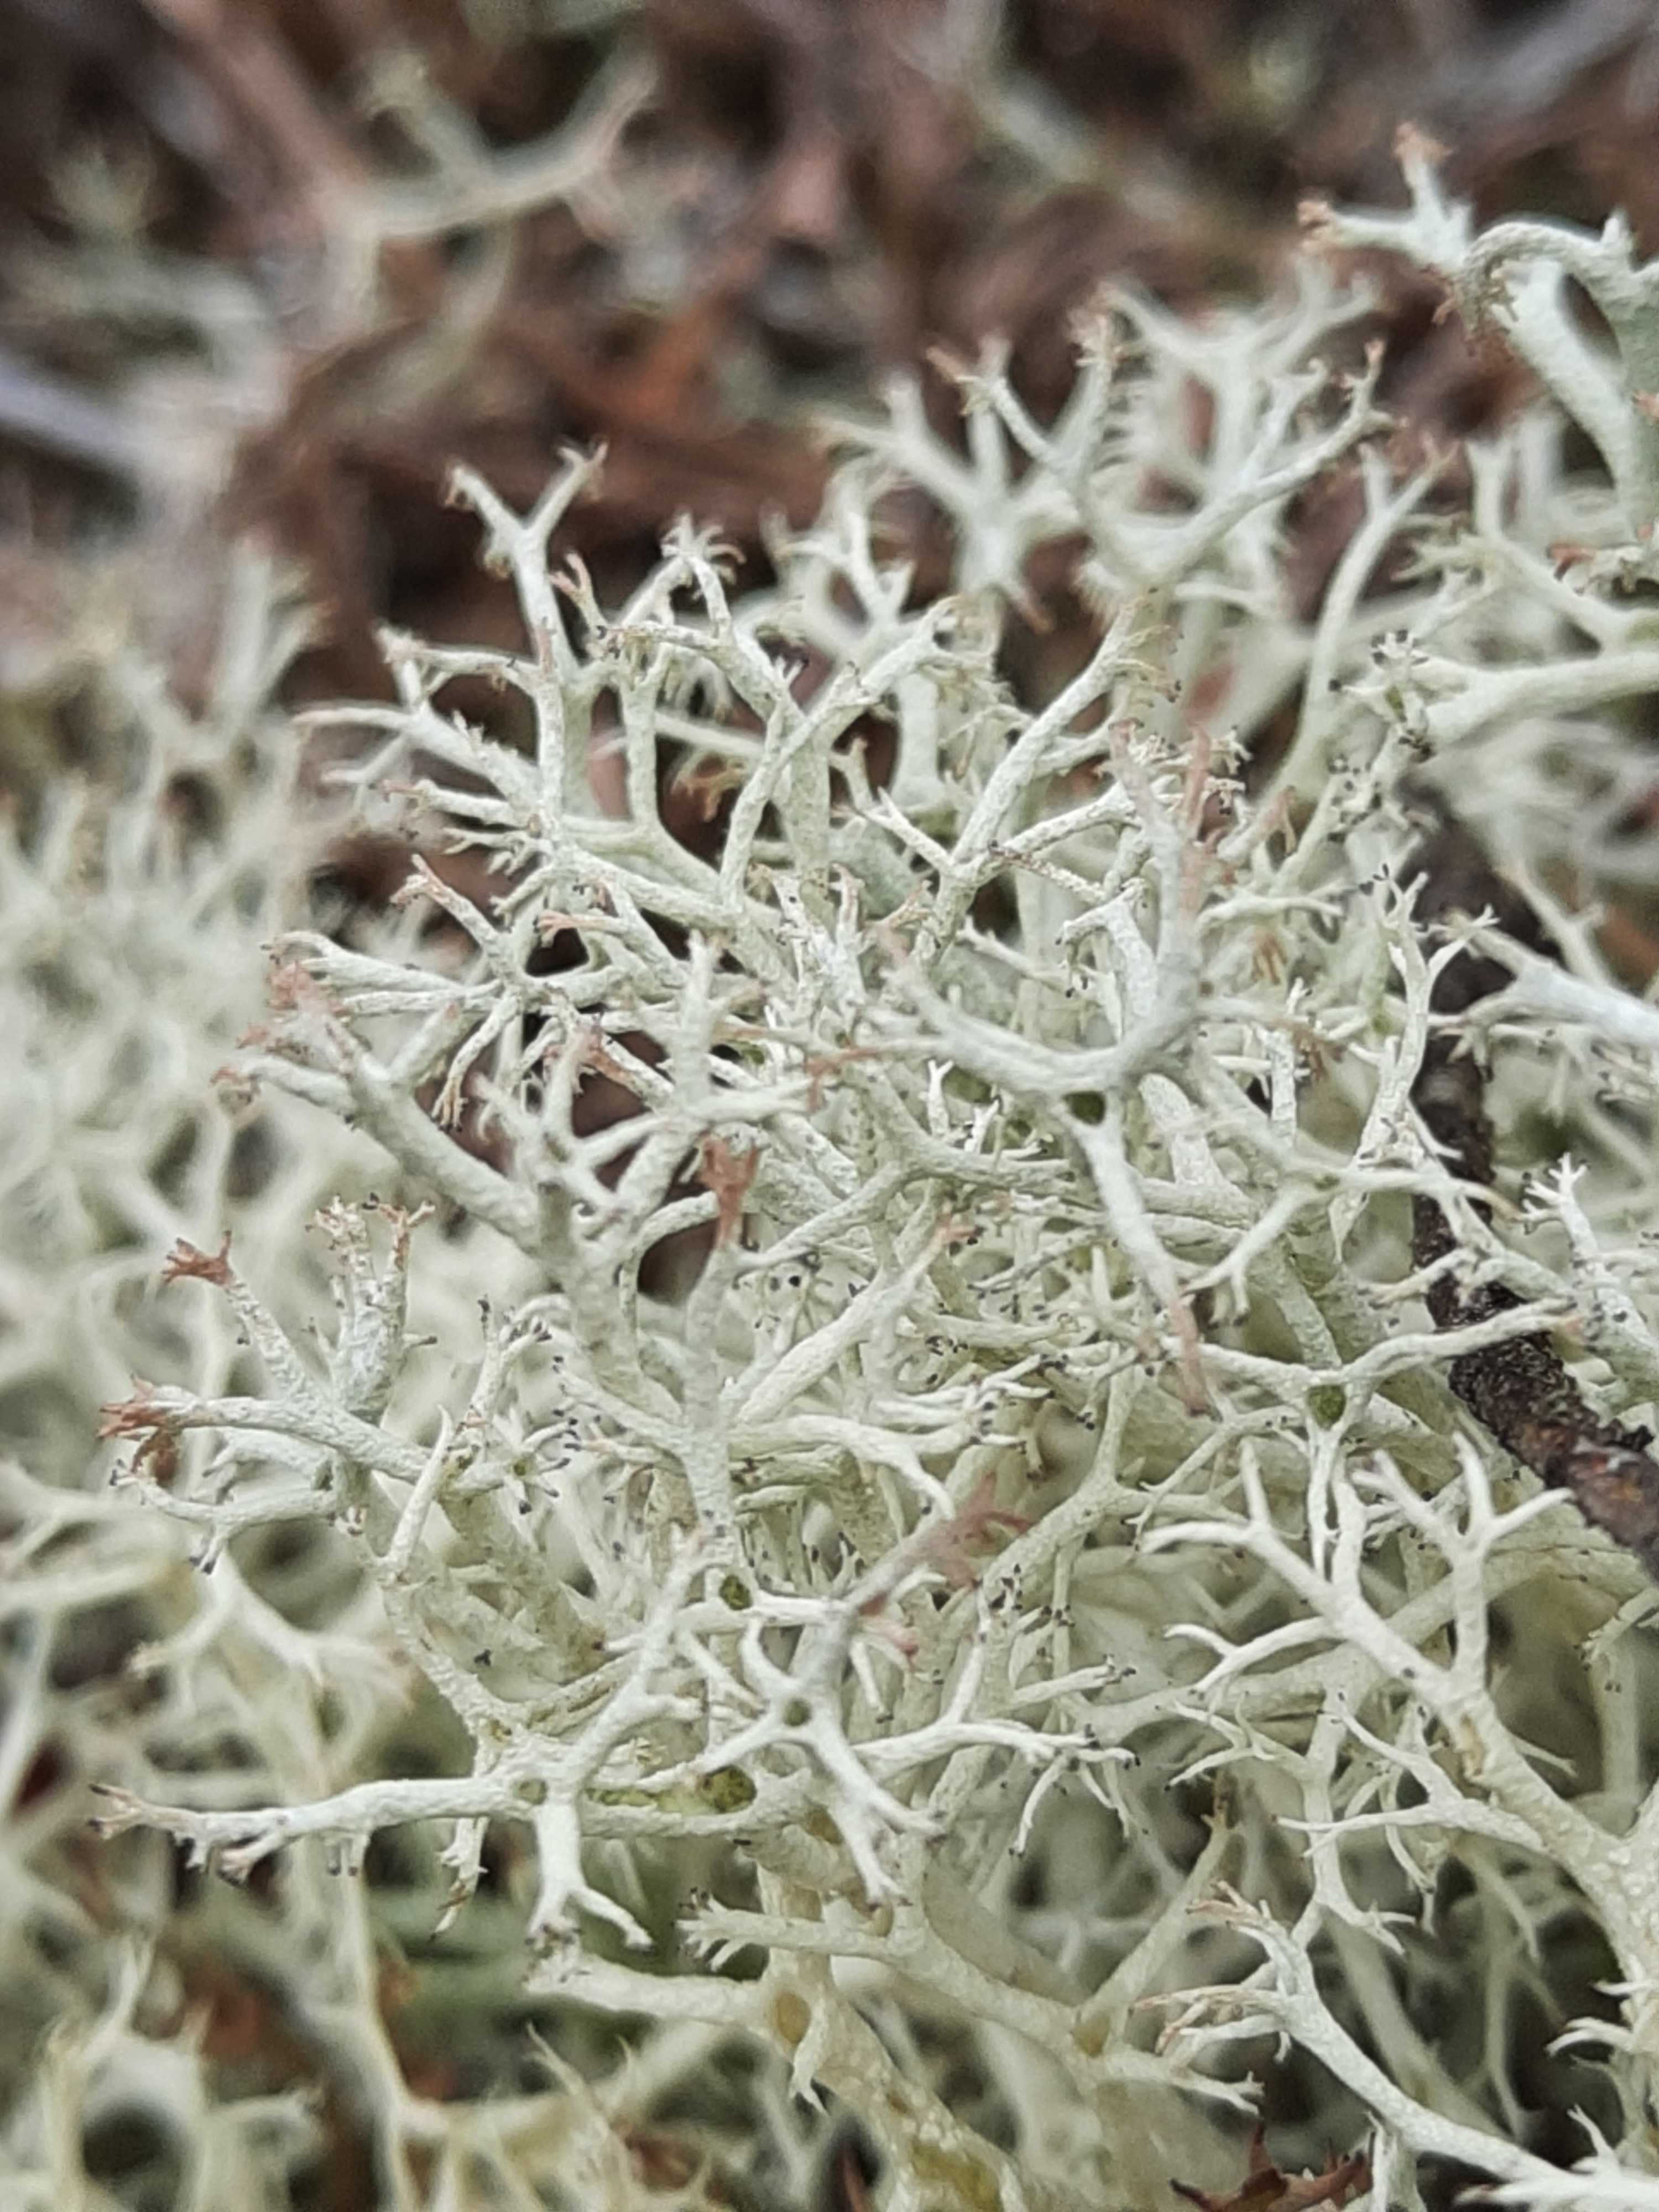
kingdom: Fungi
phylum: Ascomycota
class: Lecanoromycetes
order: Lecanorales
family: Cladoniaceae
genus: Cladonia
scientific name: Cladonia portentosa
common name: hede-rensdyrlav
